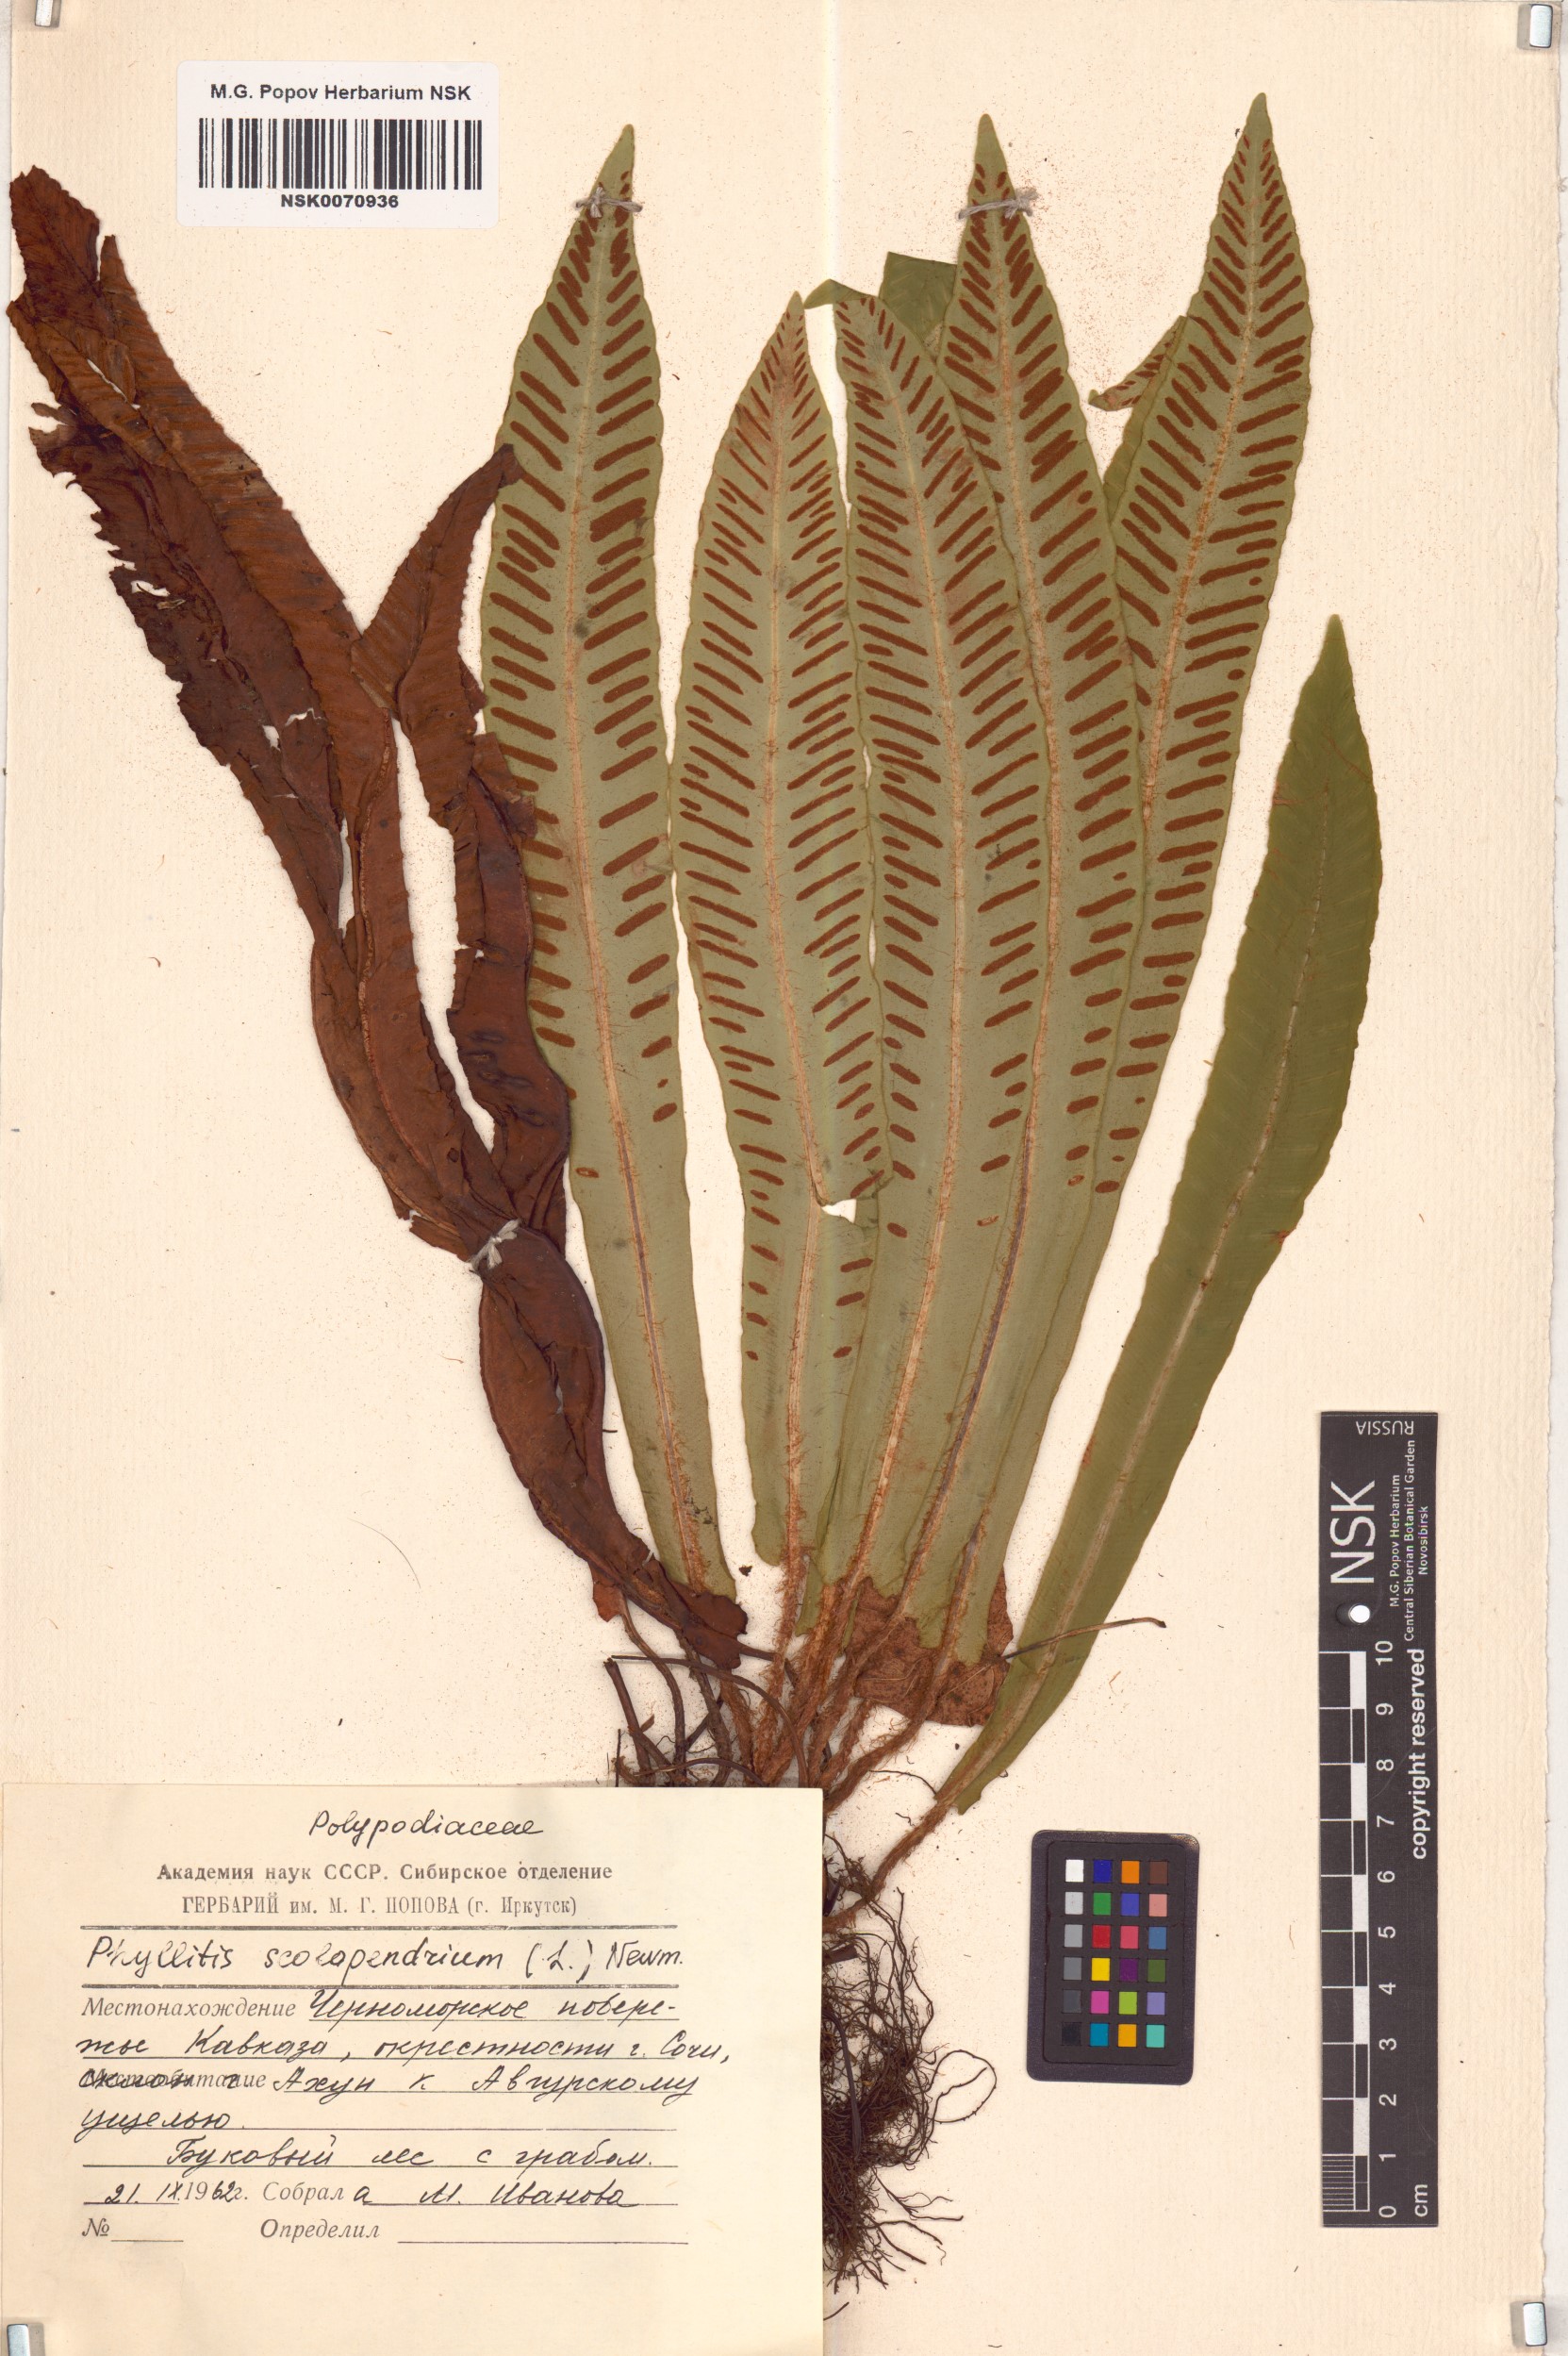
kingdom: Plantae
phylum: Tracheophyta
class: Polypodiopsida
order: Polypodiales
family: Aspleniaceae
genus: Asplenium
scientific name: Asplenium scolopendrium
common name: Hart's-tongue fern
